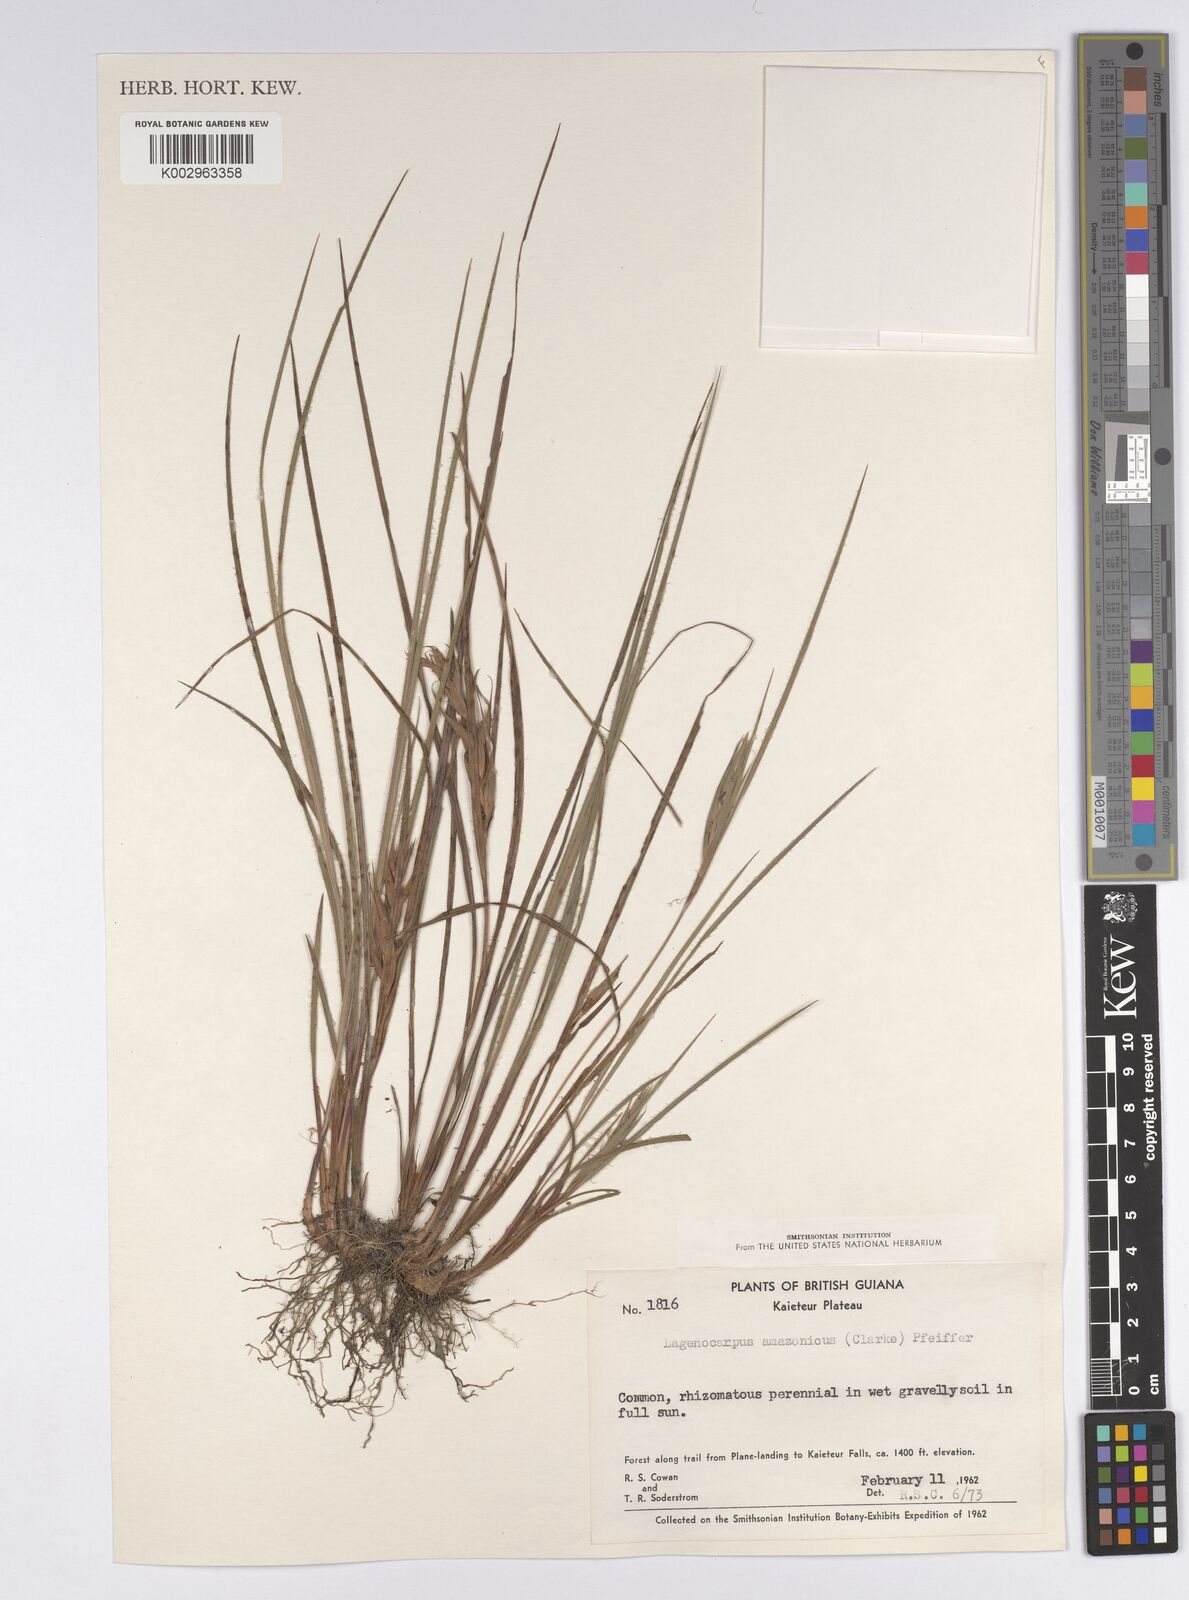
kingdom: Plantae
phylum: Tracheophyta
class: Liliopsida
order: Poales
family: Cyperaceae
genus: Exochogyne
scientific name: Exochogyne amazonica
